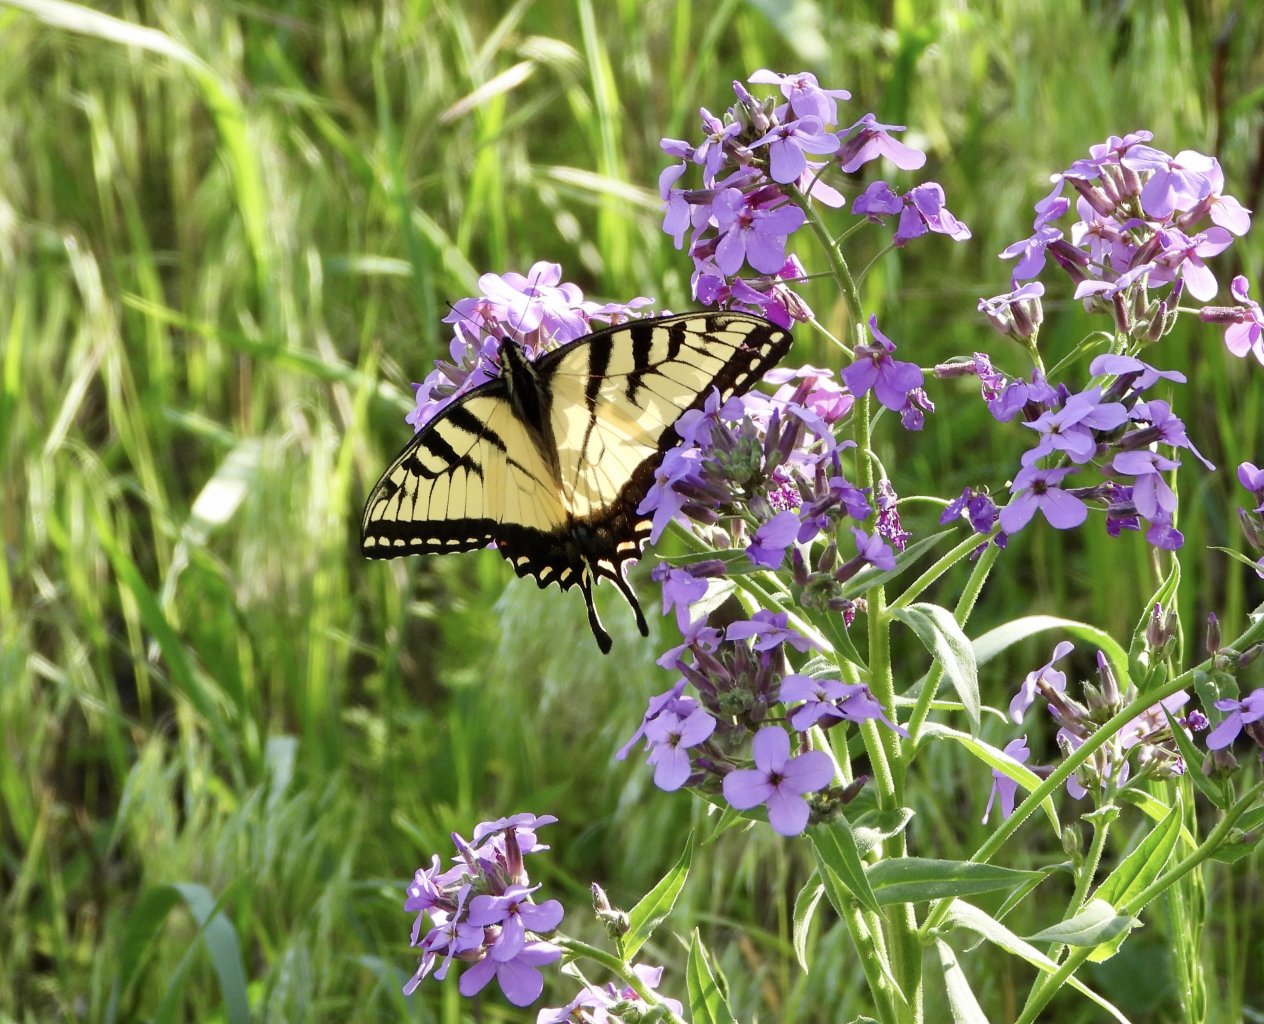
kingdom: Animalia
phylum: Arthropoda
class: Insecta
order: Lepidoptera
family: Papilionidae
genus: Pterourus
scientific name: Pterourus glaucus
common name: Eastern Tiger Swallowtail
